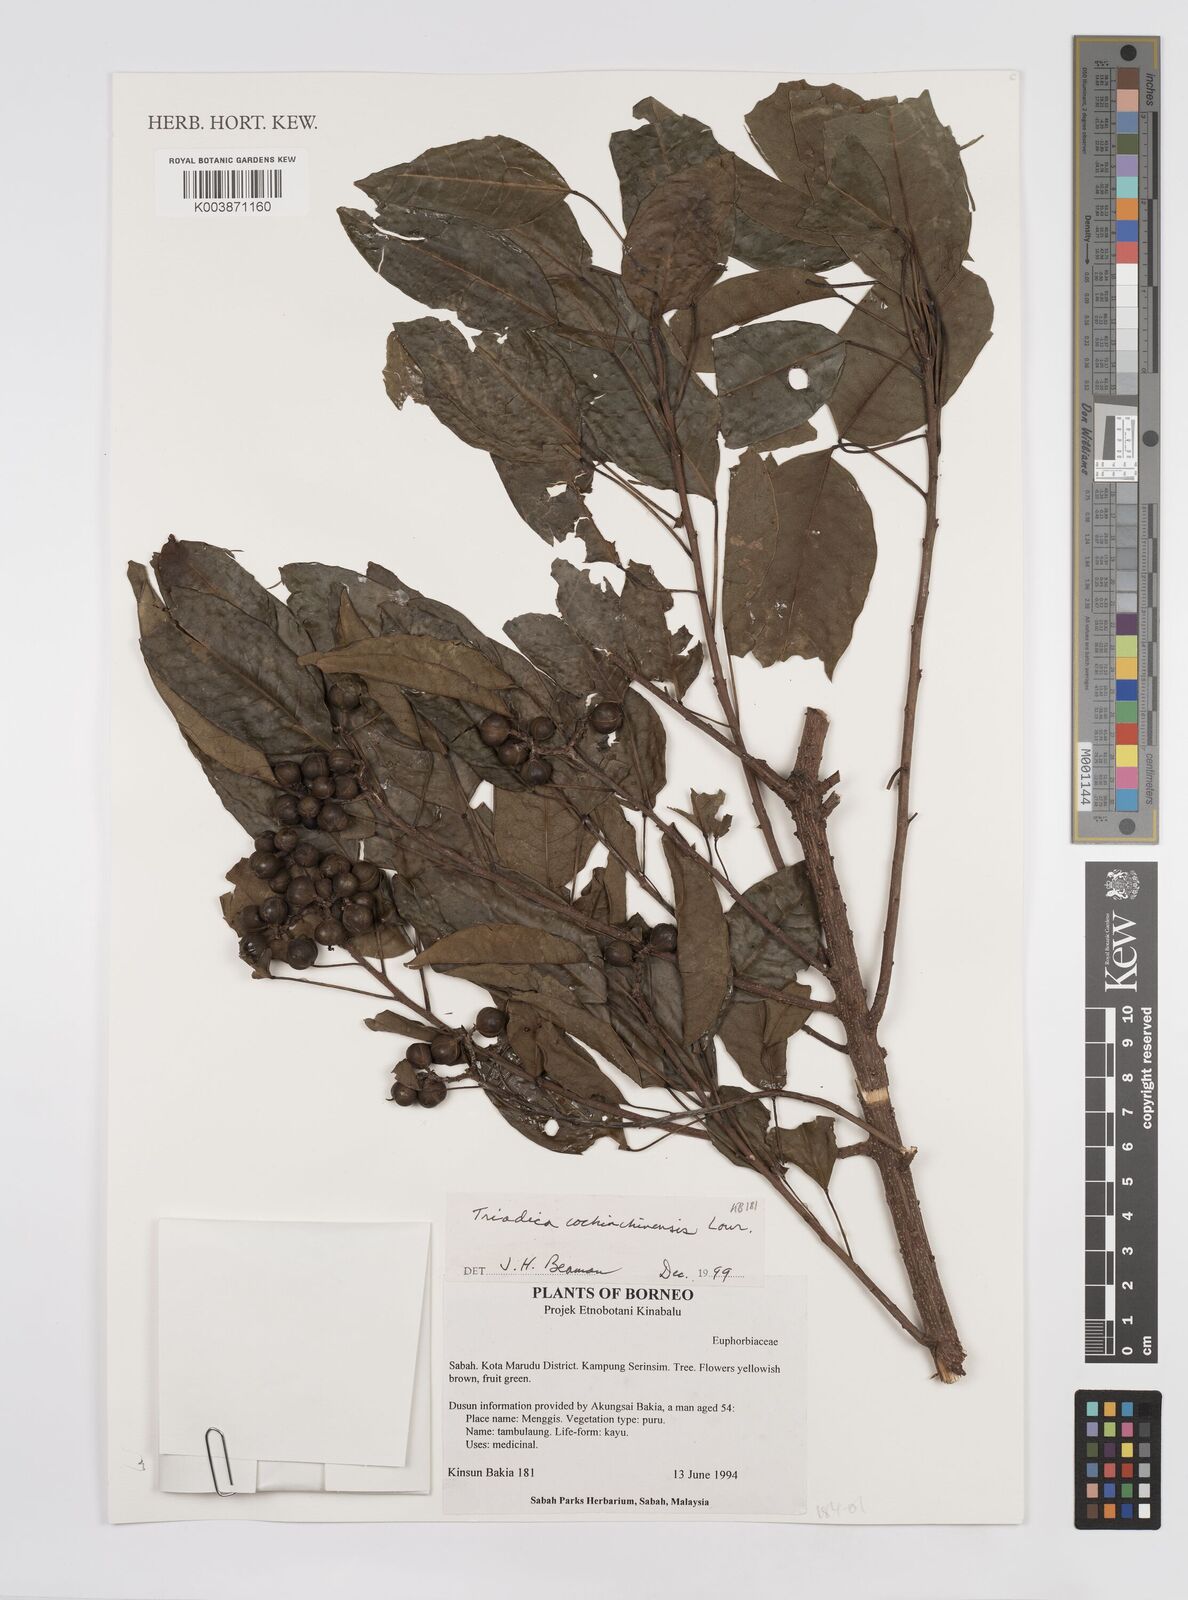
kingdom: Plantae
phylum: Tracheophyta
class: Magnoliopsida
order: Malpighiales
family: Euphorbiaceae
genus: Triadica
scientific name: Triadica cochinchinensis
